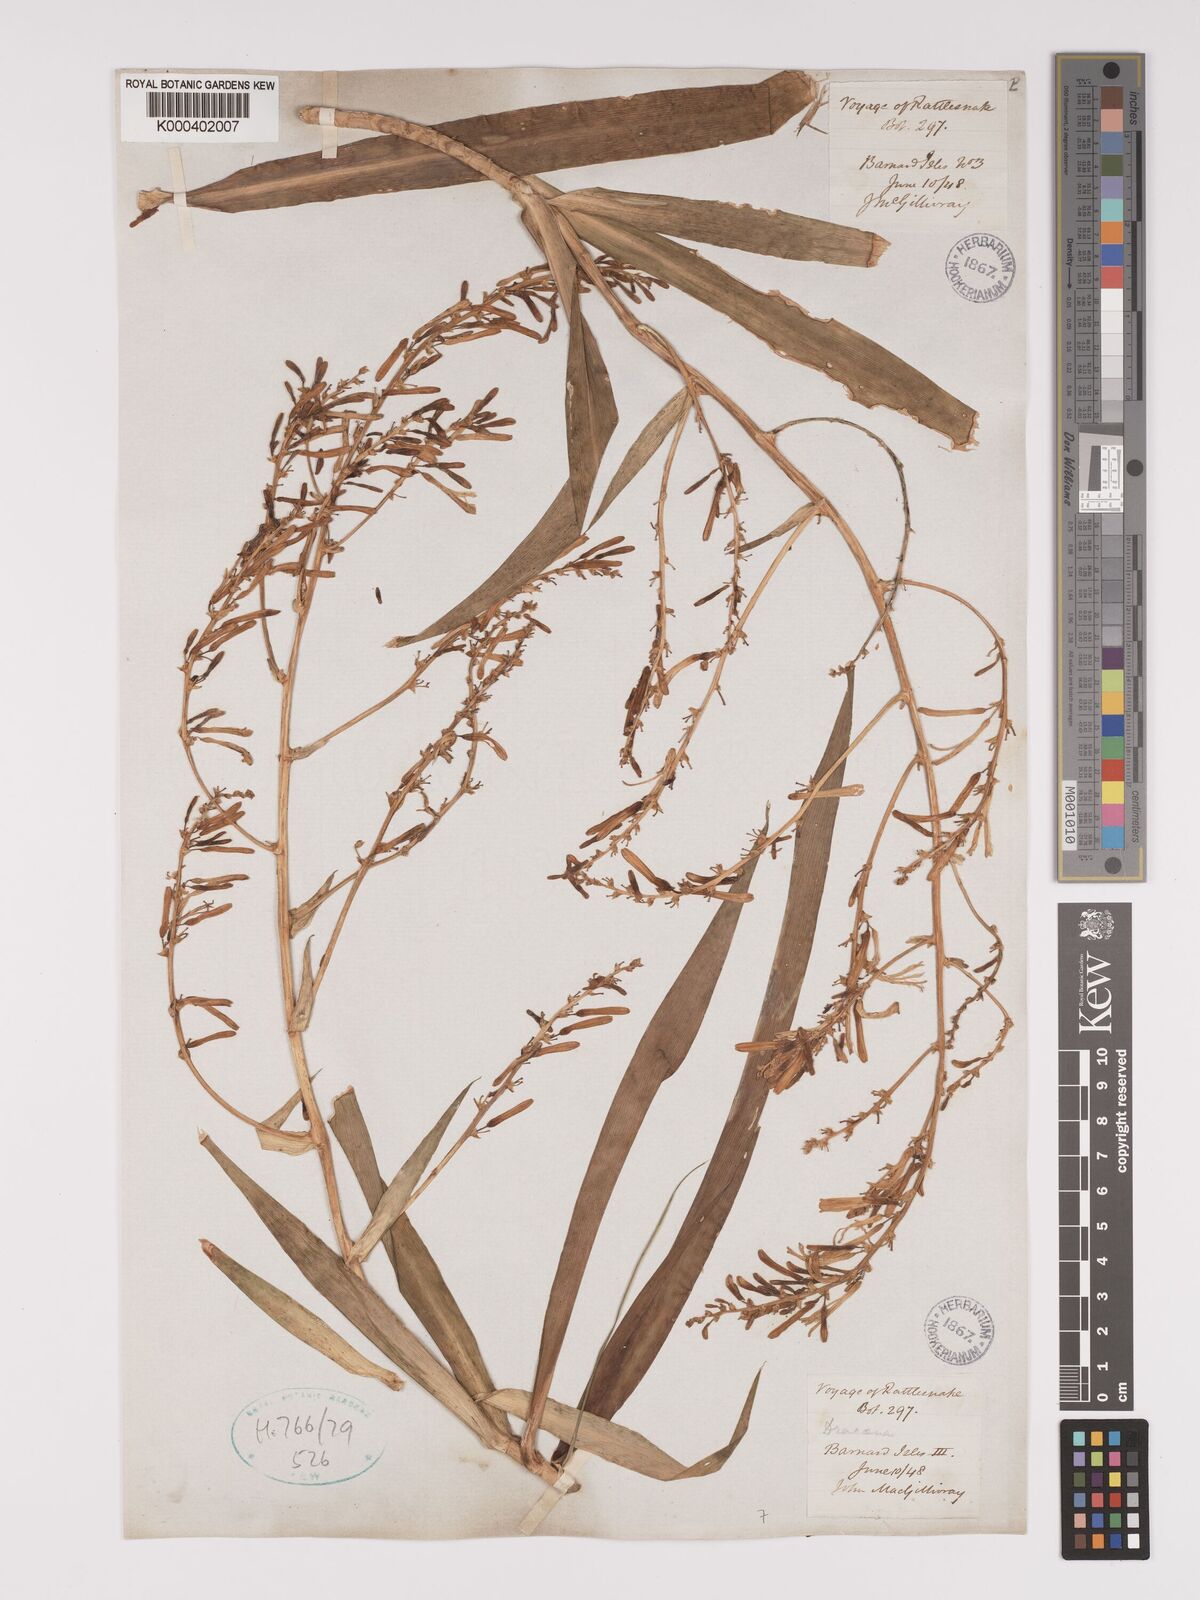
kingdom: Plantae
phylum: Tracheophyta
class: Liliopsida
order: Asparagales
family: Asparagaceae
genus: Dracaena
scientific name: Dracaena
